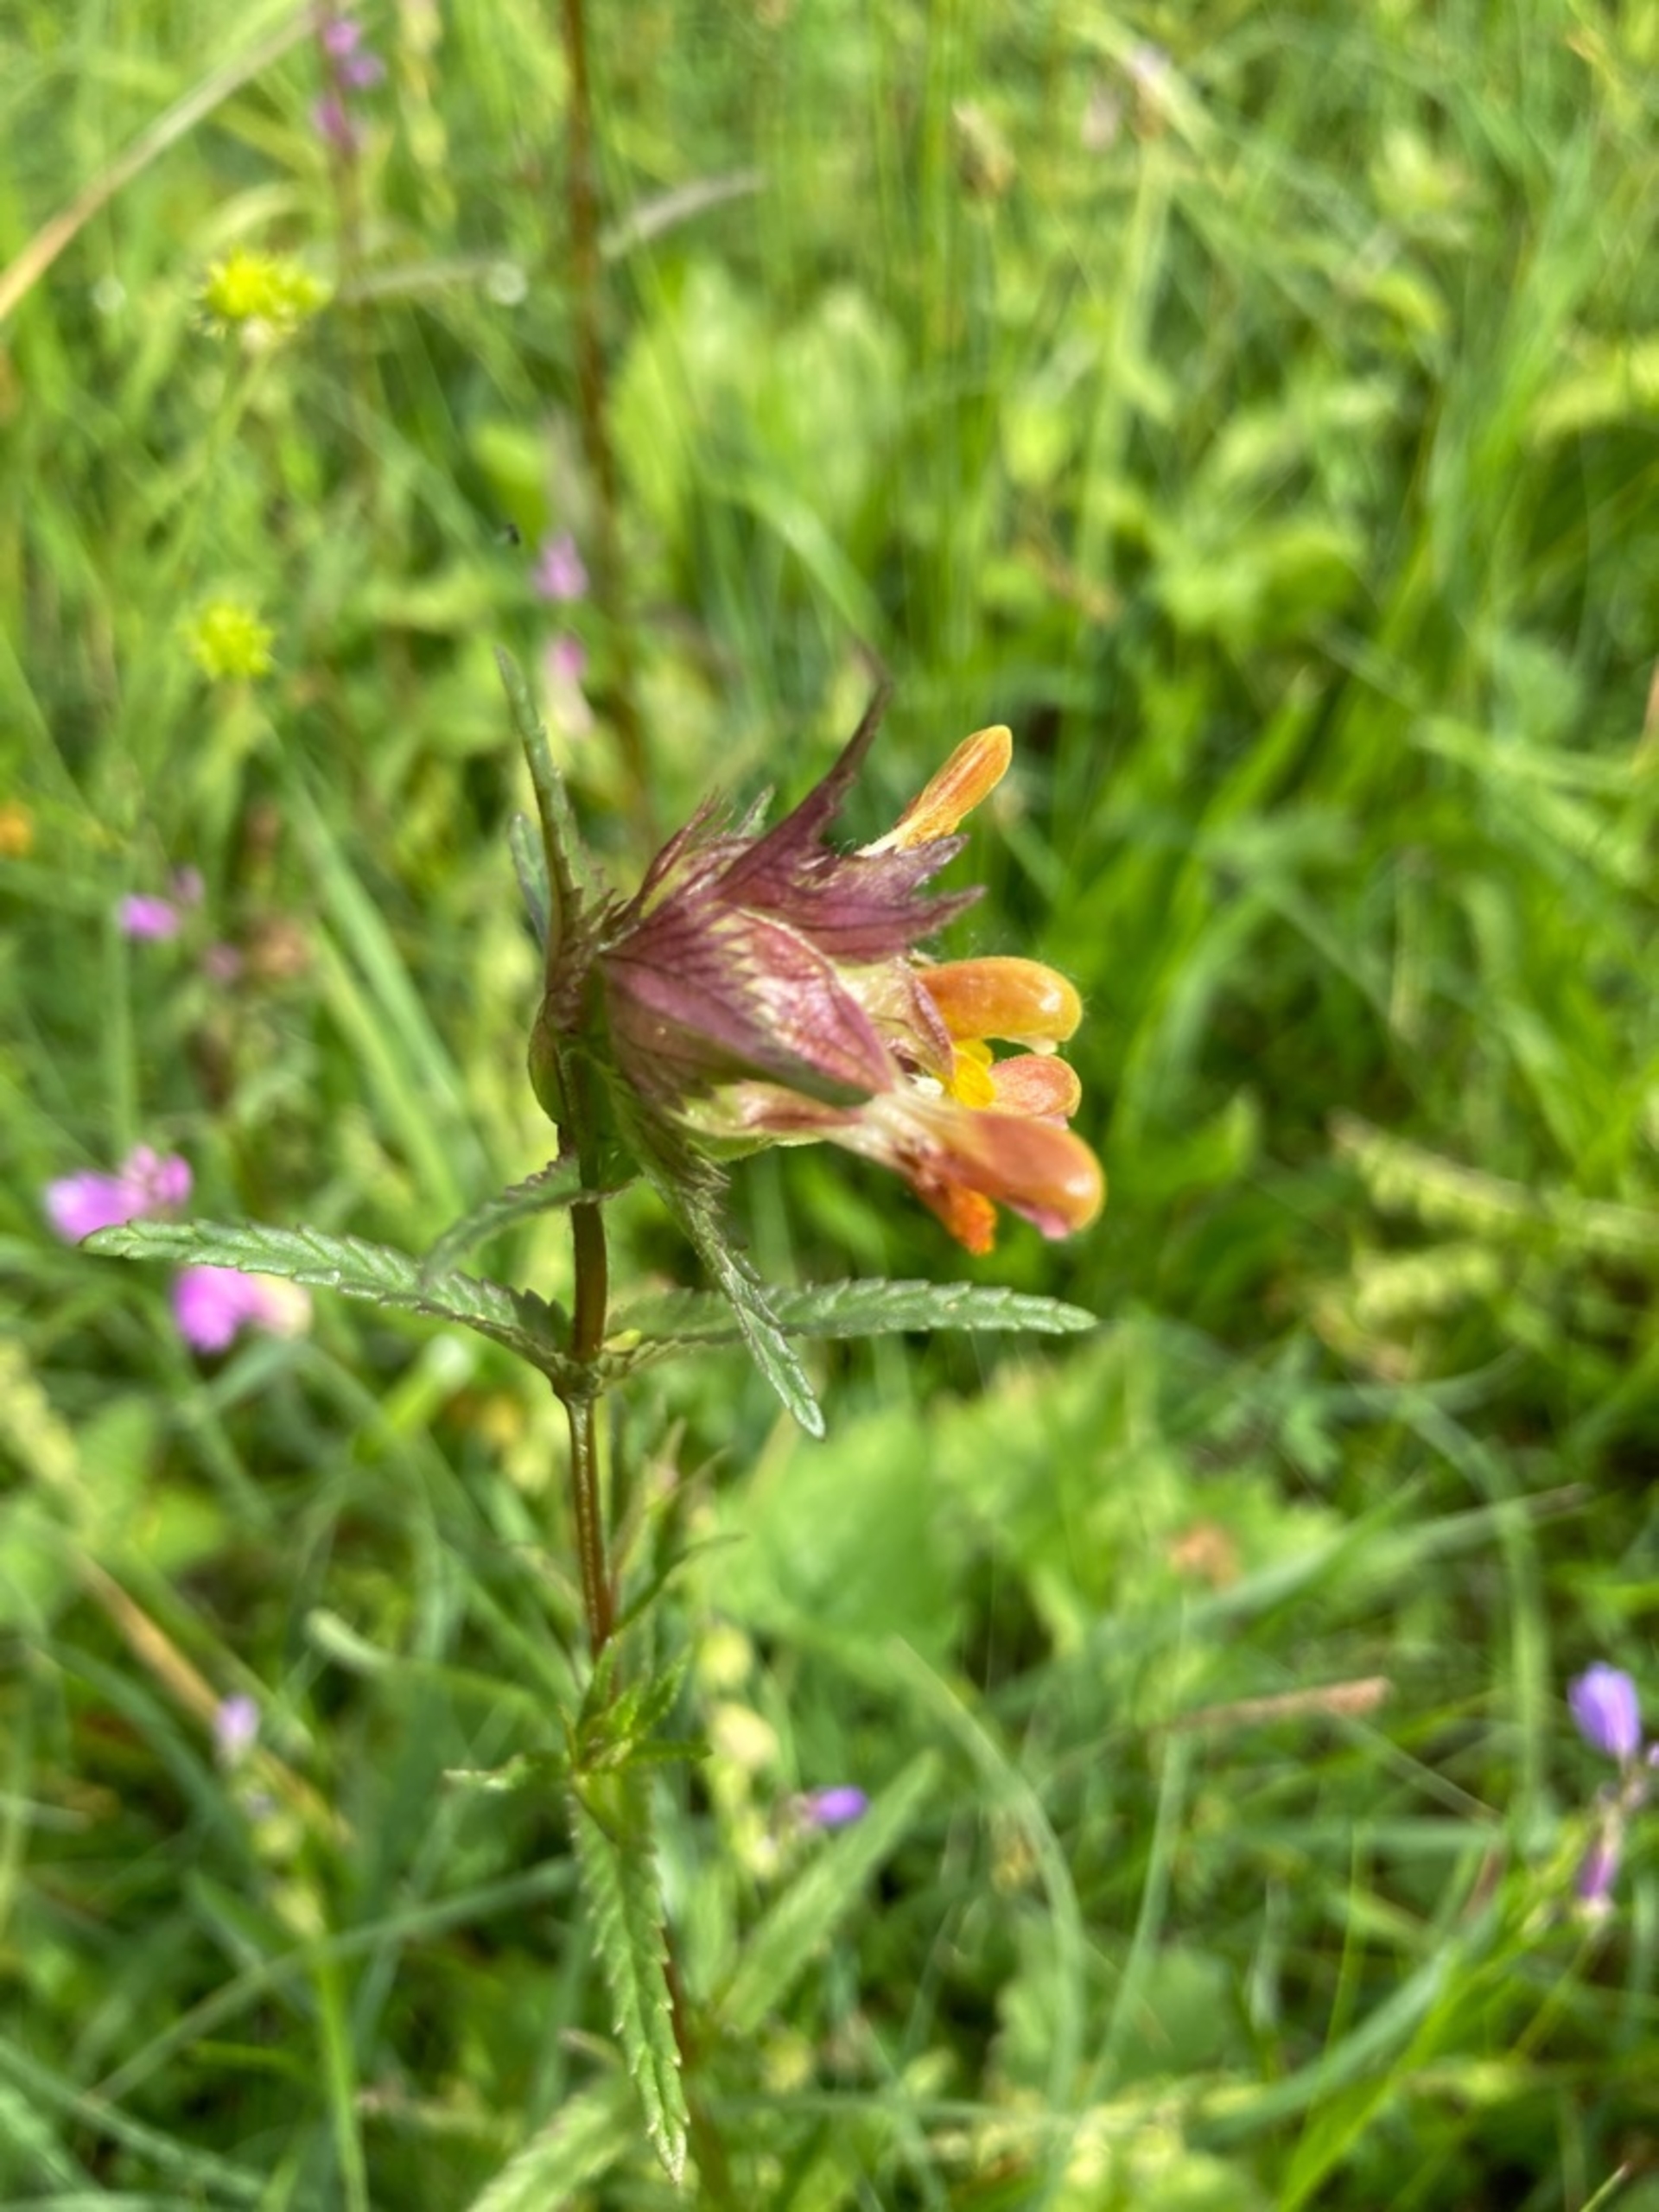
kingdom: Plantae
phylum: Tracheophyta
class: Magnoliopsida
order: Lamiales
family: Orobanchaceae
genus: Rhinanthus
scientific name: Rhinanthus minor
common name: Liden skjaller
